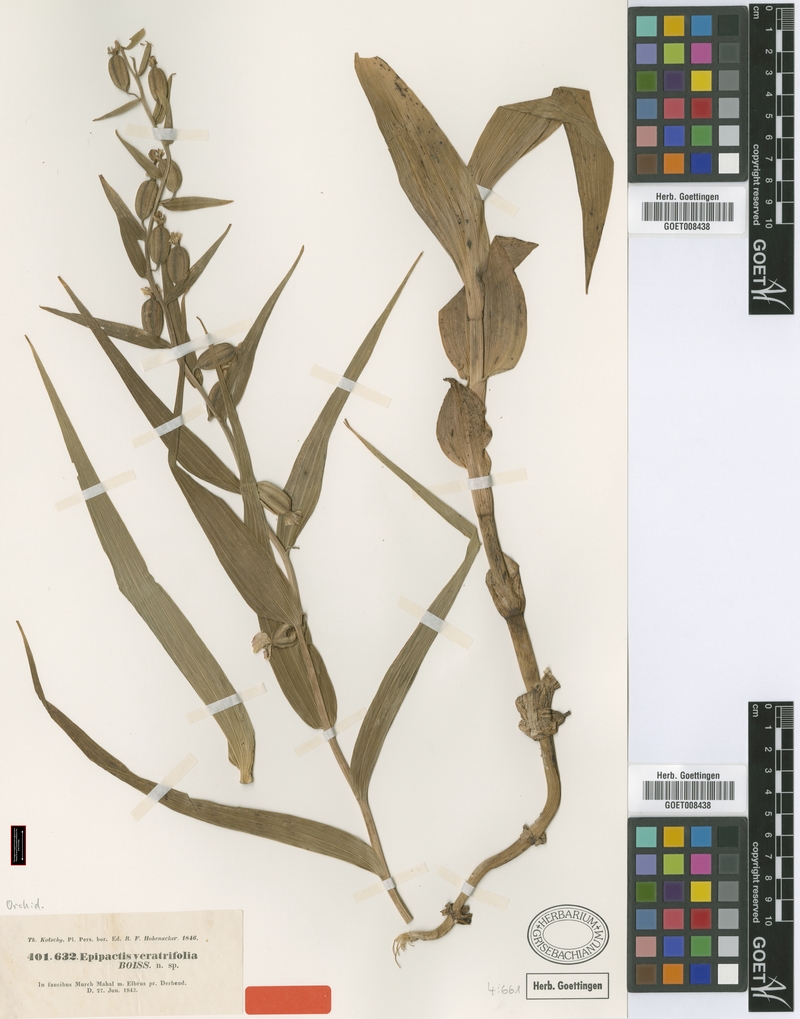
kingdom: Plantae
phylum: Tracheophyta
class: Liliopsida
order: Asparagales
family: Orchidaceae
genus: Epipactis
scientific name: Epipactis veratrifolia
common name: Eastern marsh helleborine
